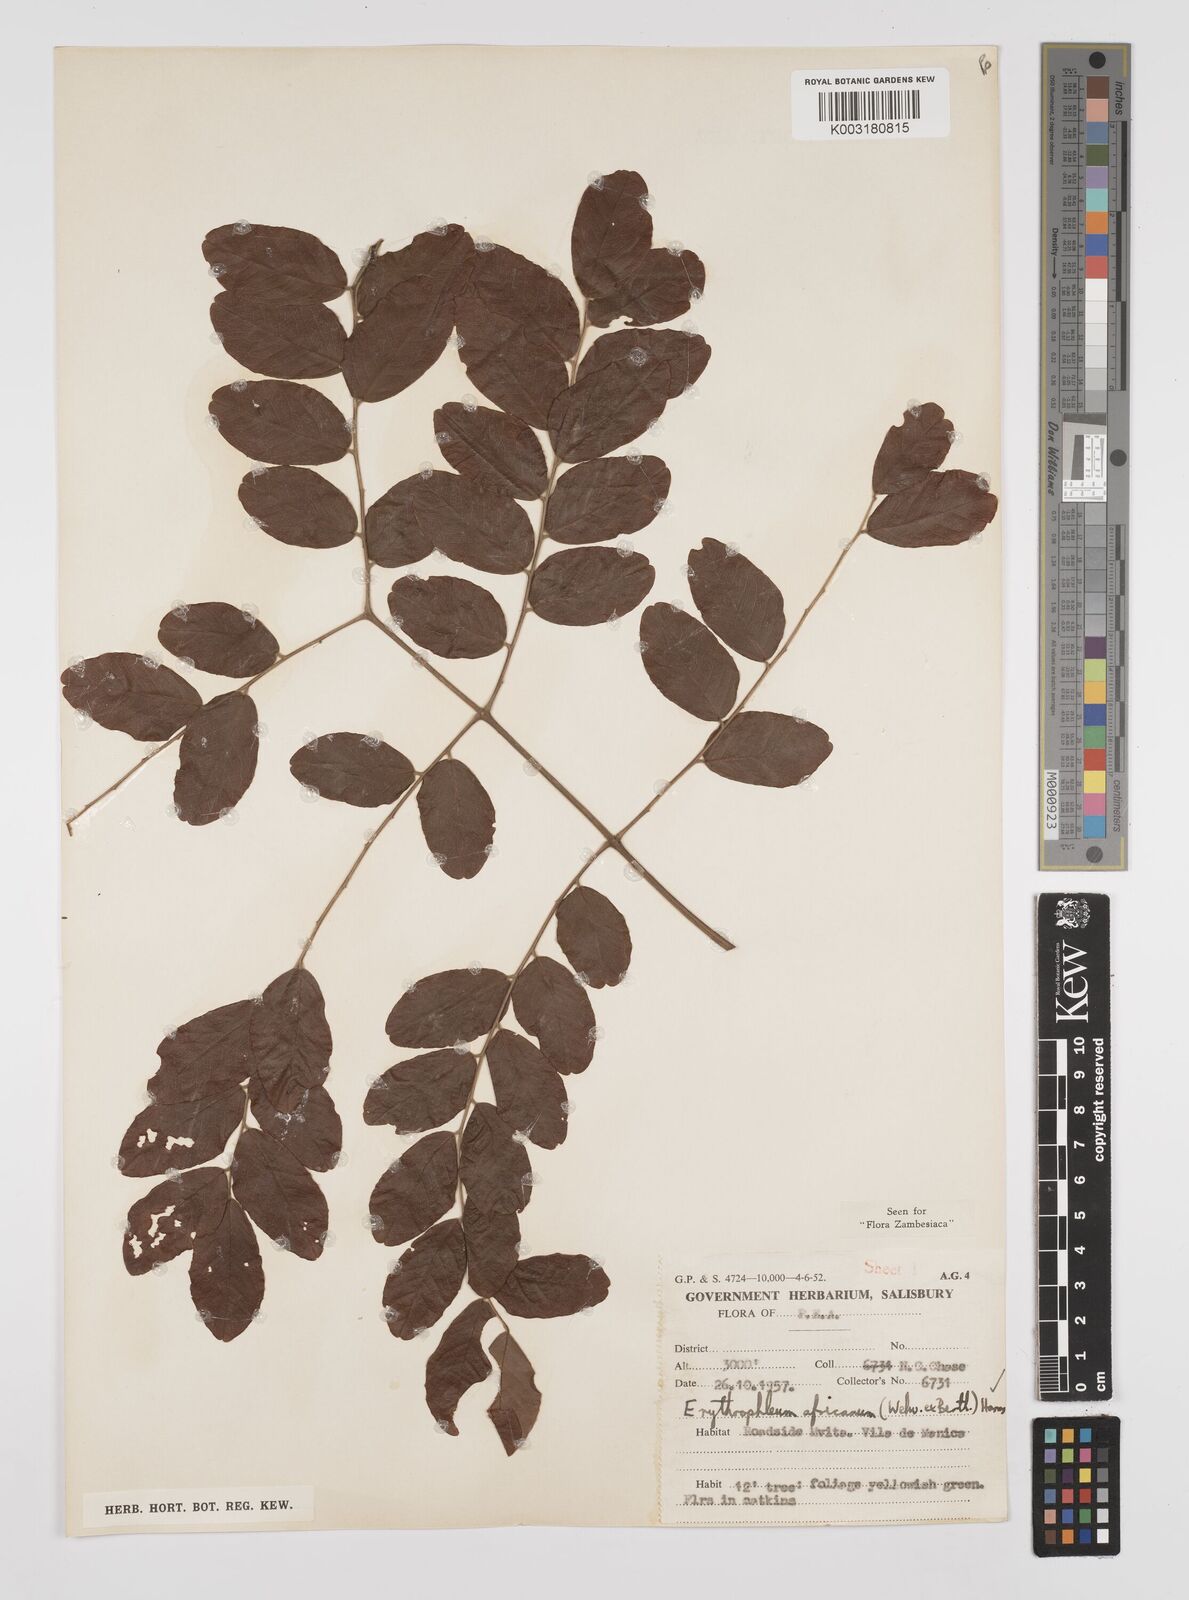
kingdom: Plantae
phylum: Tracheophyta
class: Magnoliopsida
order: Fabales
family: Fabaceae
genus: Peltophorum
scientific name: Peltophorum africanum
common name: African black wattle
